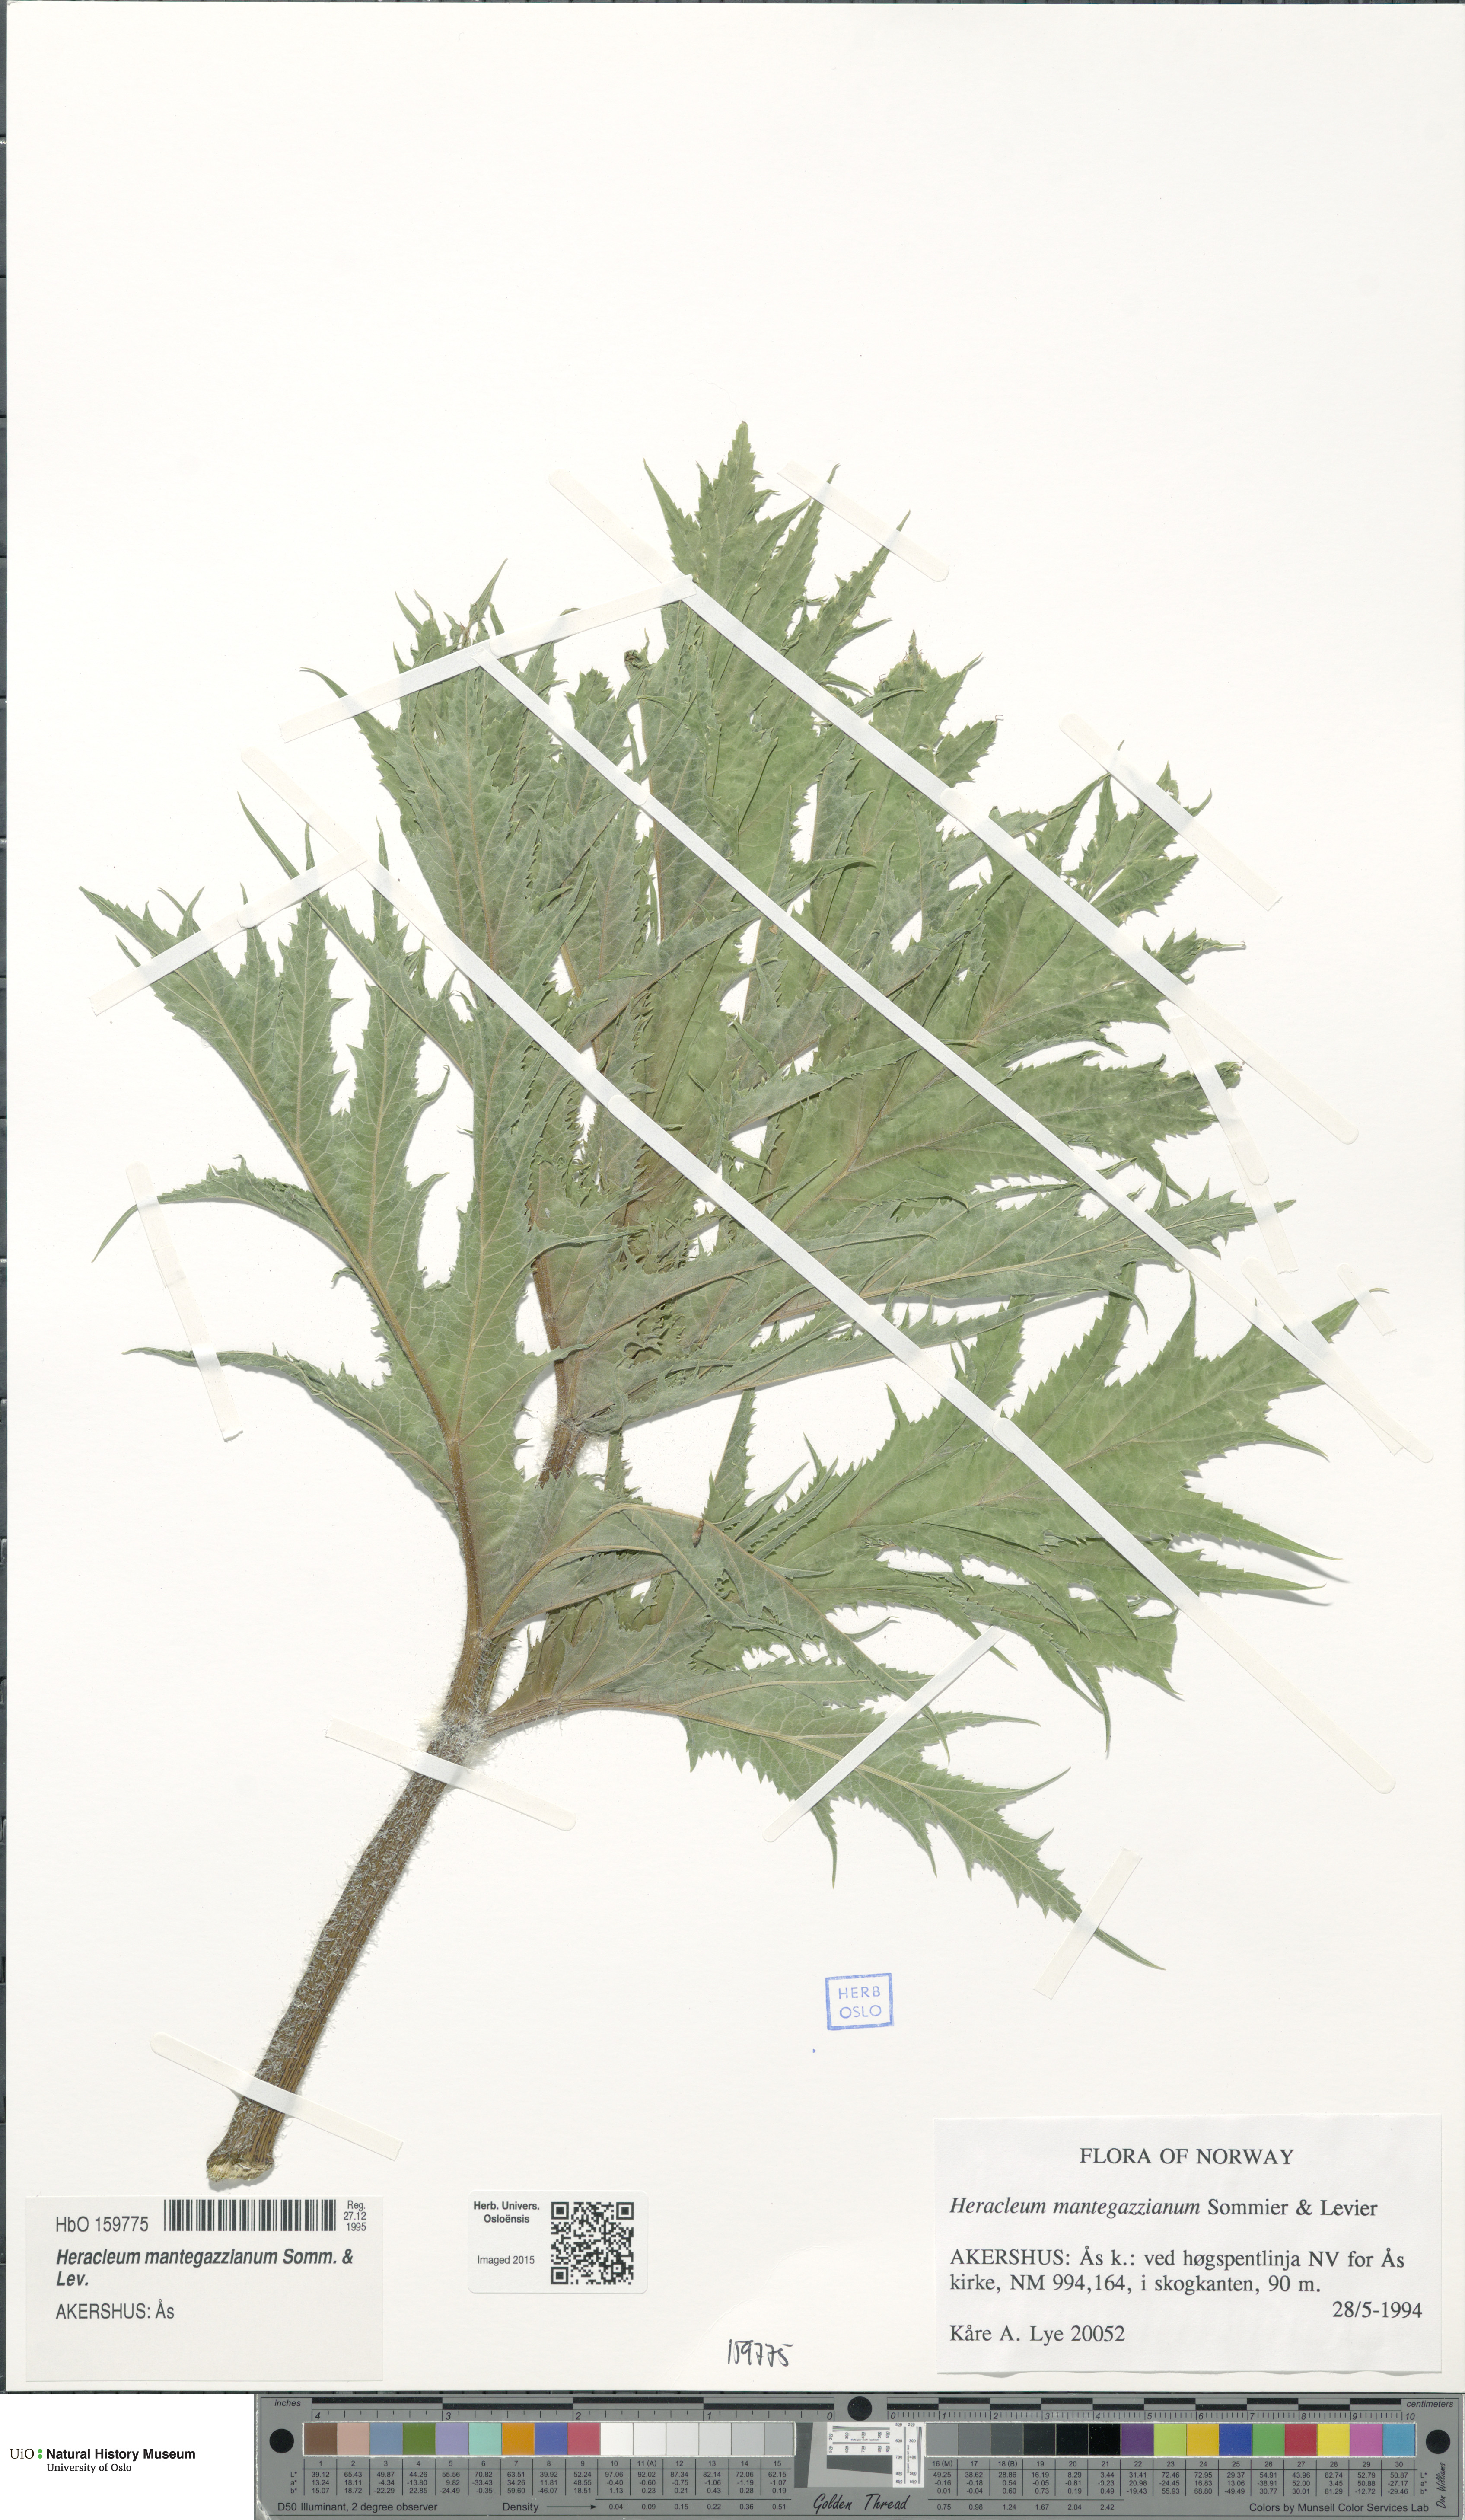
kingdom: Plantae
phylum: Tracheophyta
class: Magnoliopsida
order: Apiales
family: Apiaceae
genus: Heracleum
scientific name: Heracleum mantegazzianum
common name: Giant hogweed
